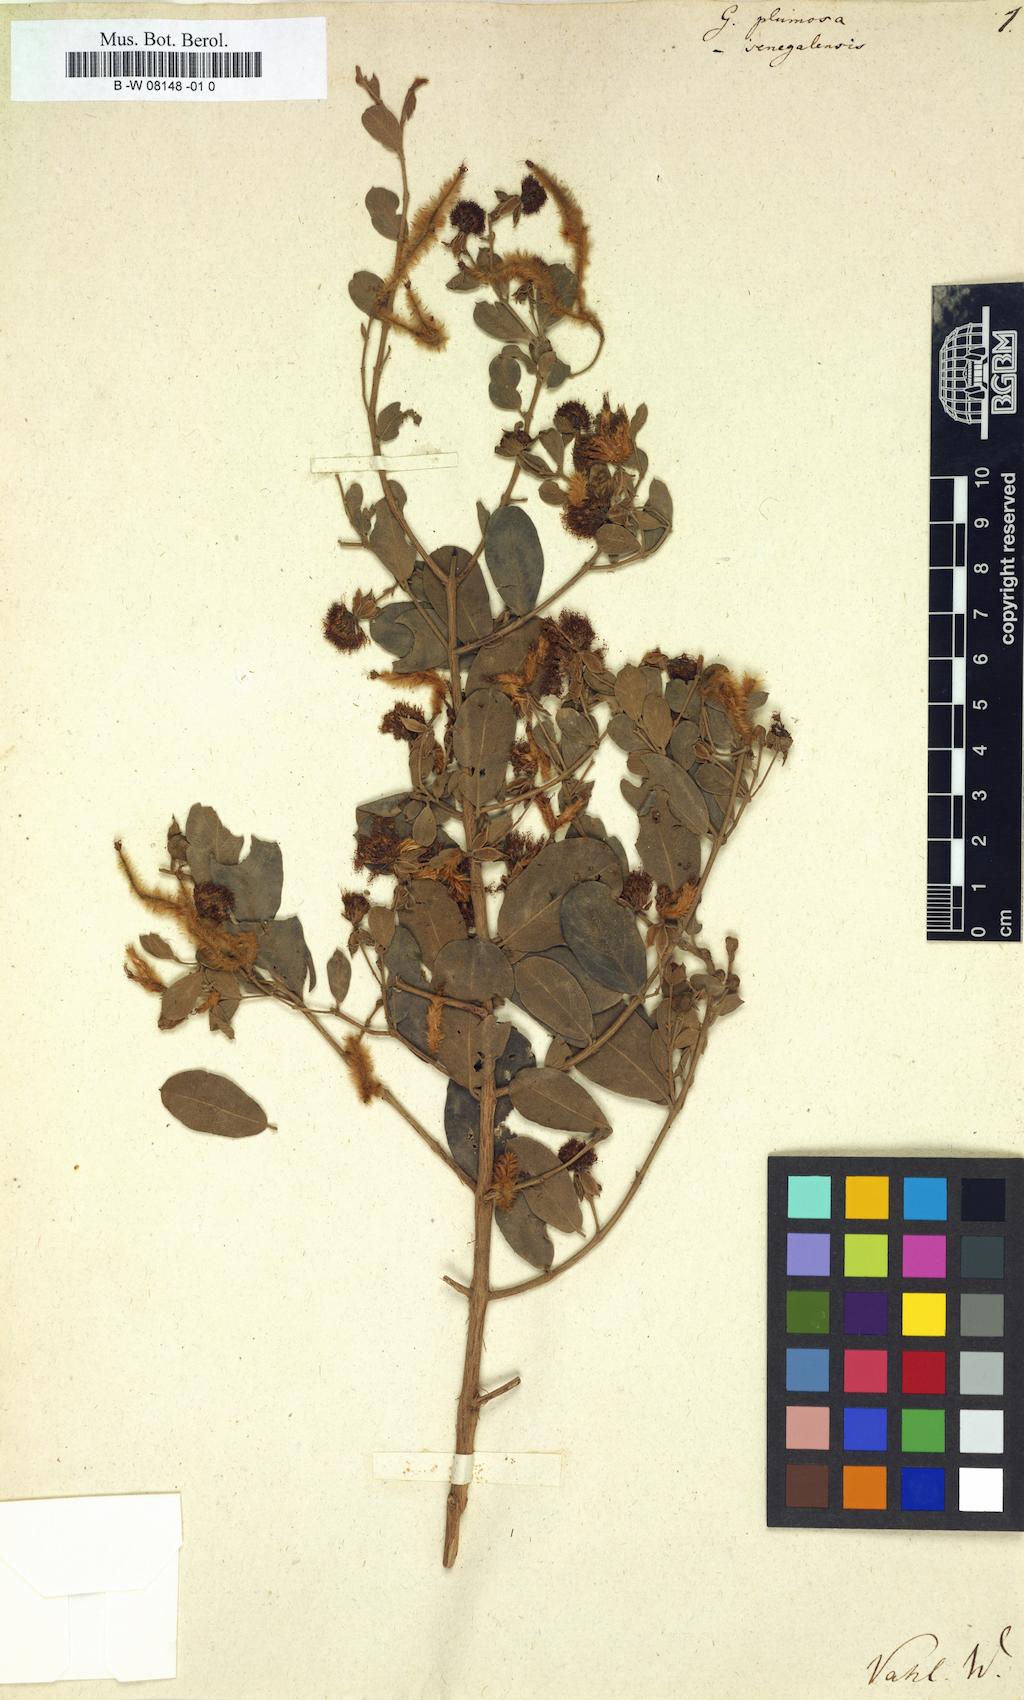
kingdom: Plantae
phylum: Tracheophyta
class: Magnoliopsida
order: Myrtales
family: Combretaceae
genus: Guiera
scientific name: Guiera
